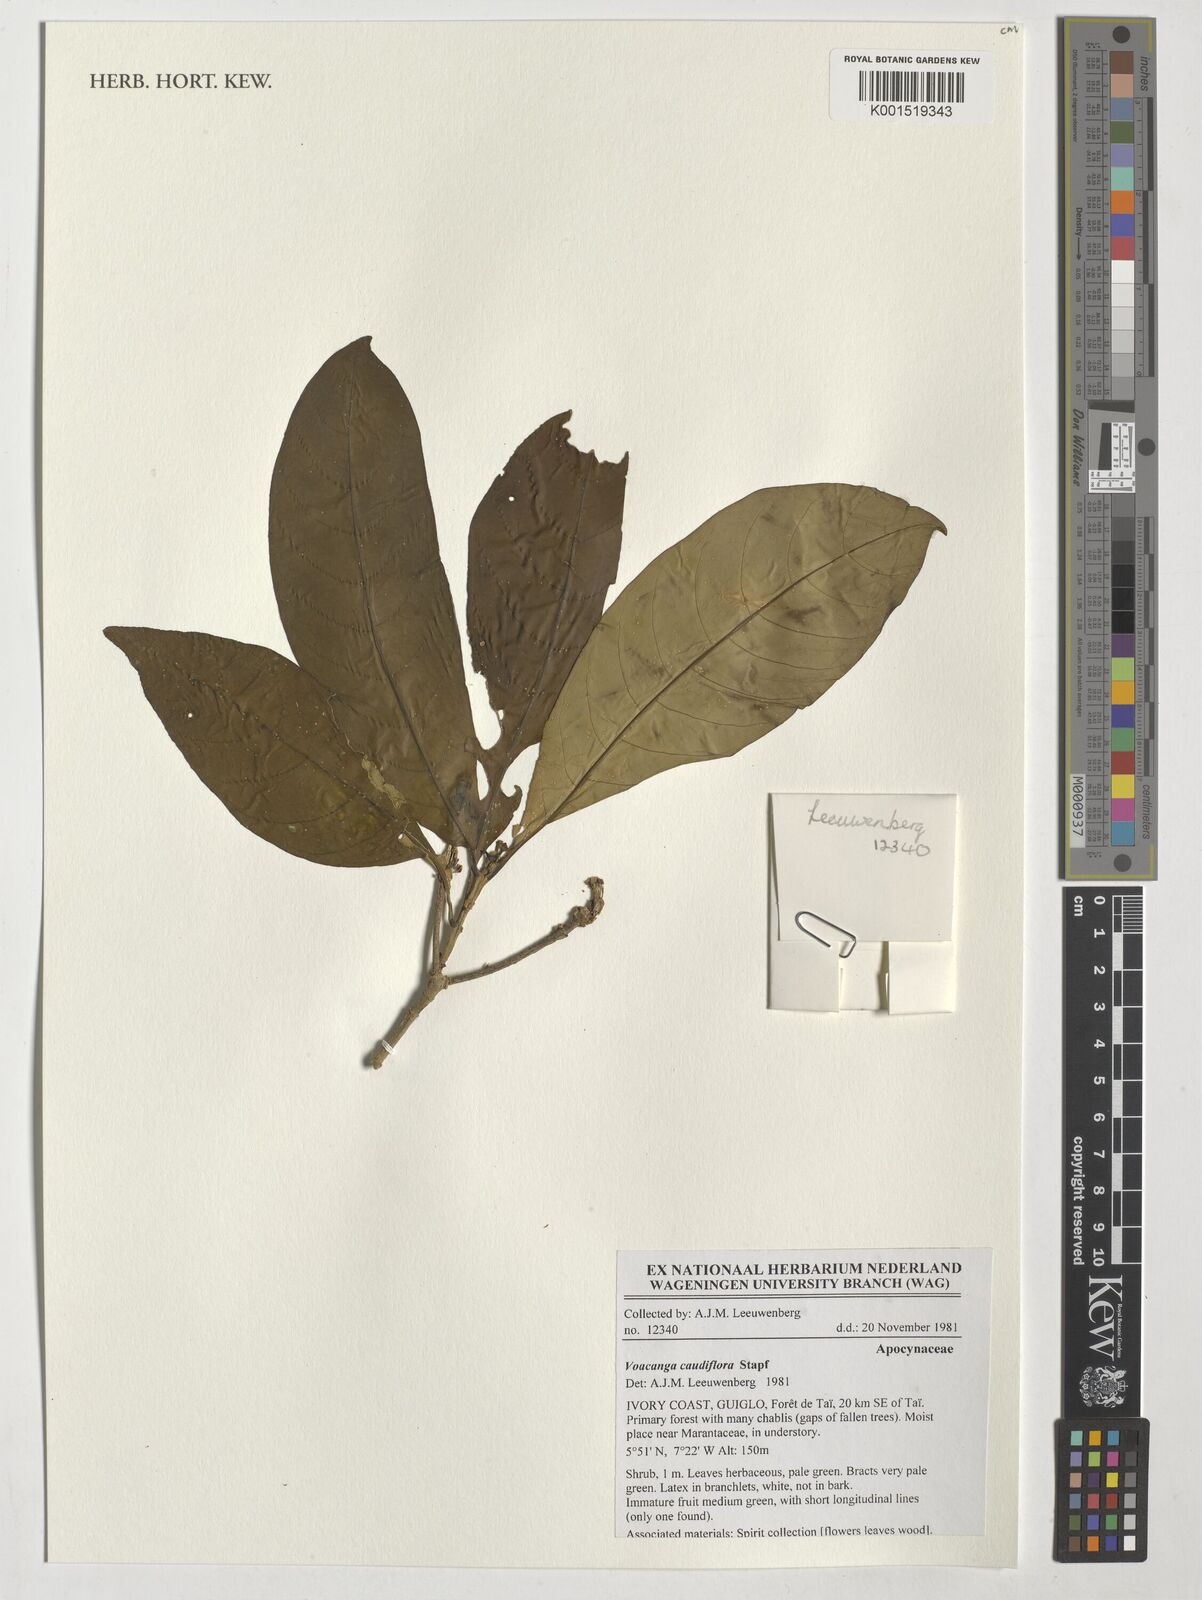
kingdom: Plantae
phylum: Tracheophyta
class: Magnoliopsida
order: Gentianales
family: Apocynaceae
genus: Voacanga
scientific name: Voacanga caudiflora
